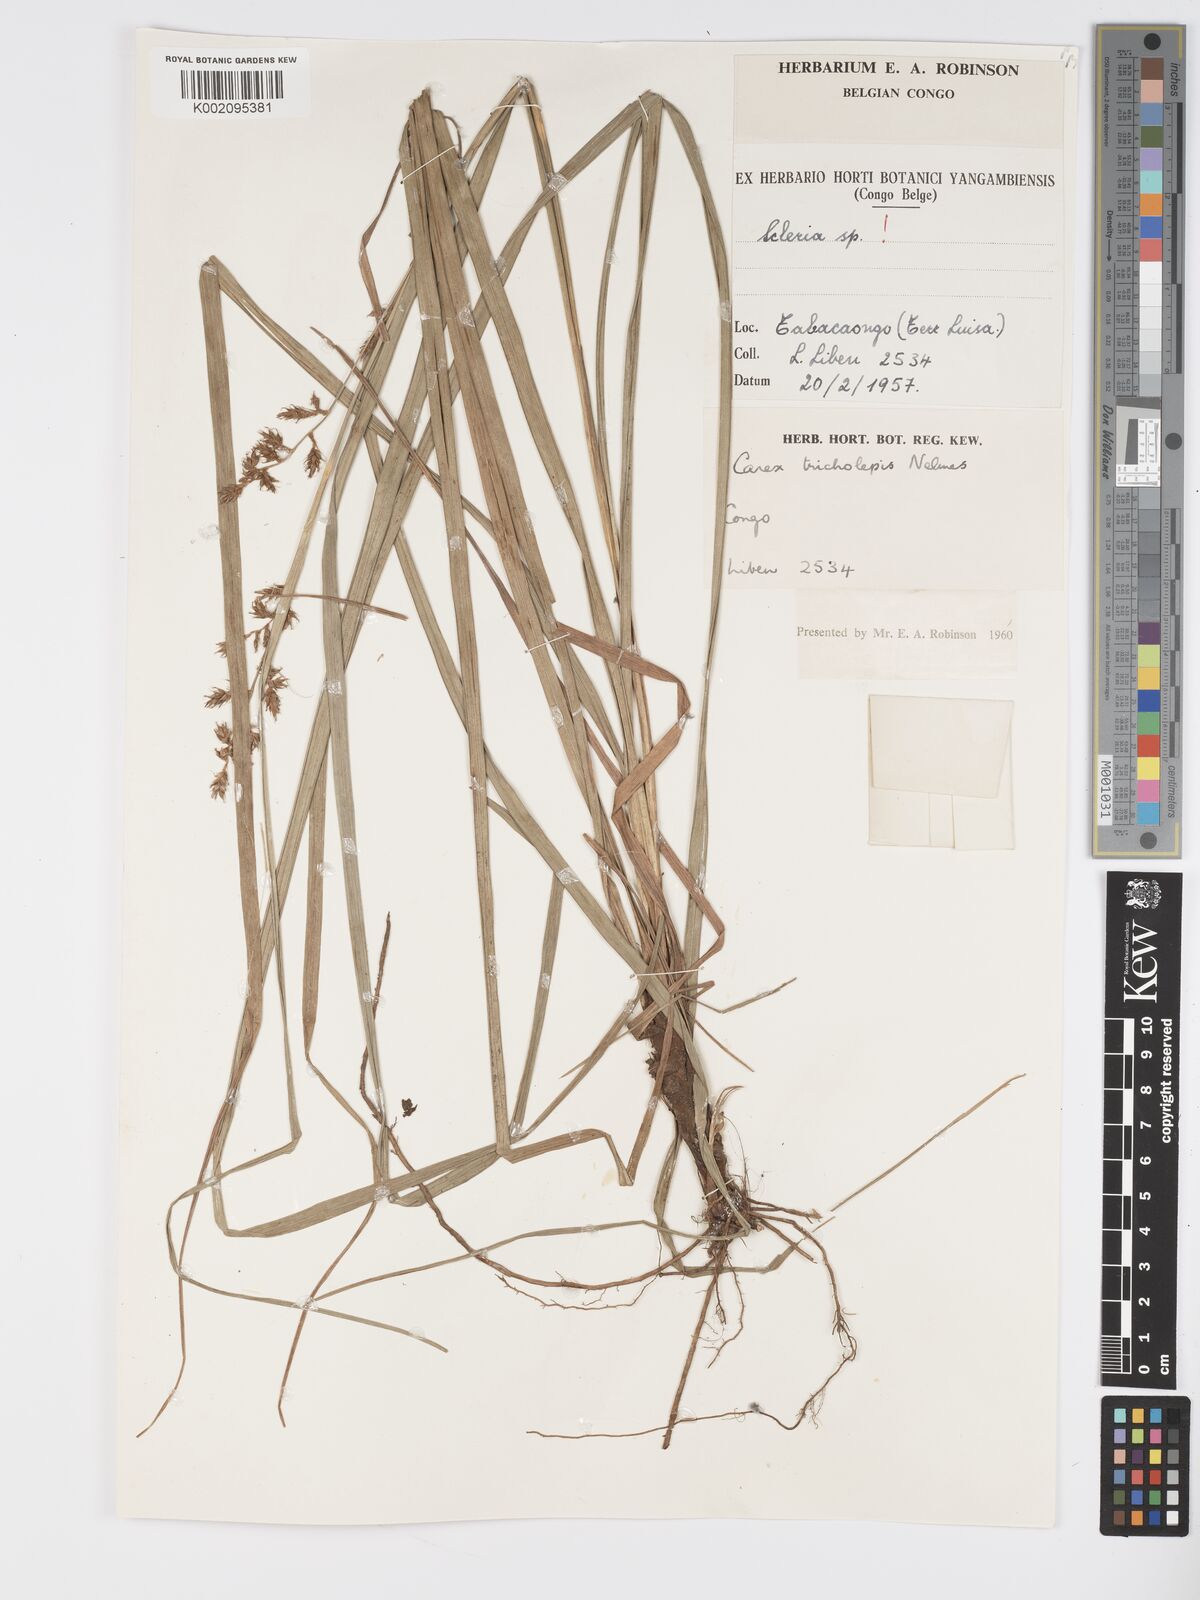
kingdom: Plantae
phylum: Tracheophyta
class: Liliopsida
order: Poales
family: Cyperaceae
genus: Carex
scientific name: Carex macrophyllidion
